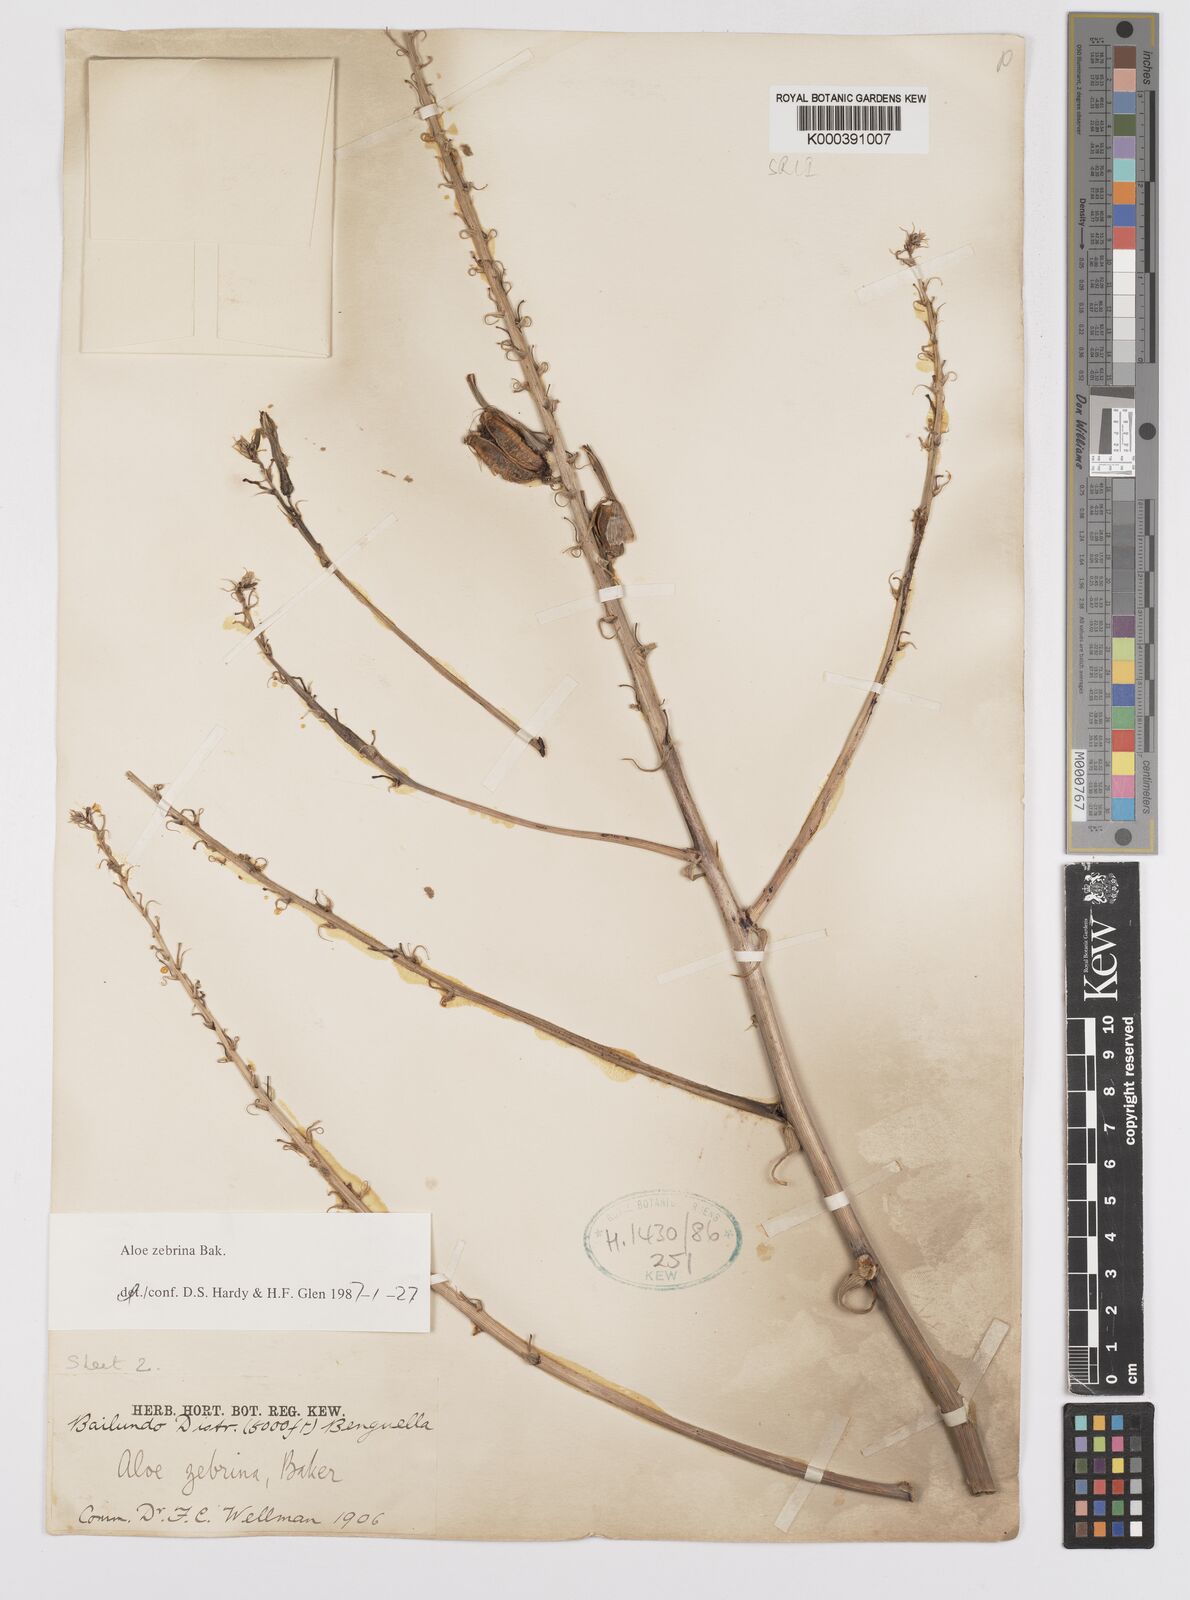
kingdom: Plantae
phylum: Tracheophyta
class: Liliopsida
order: Asparagales
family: Asphodelaceae
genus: Aloe
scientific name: Aloe zebrina
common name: Zebra-leaf aloe
